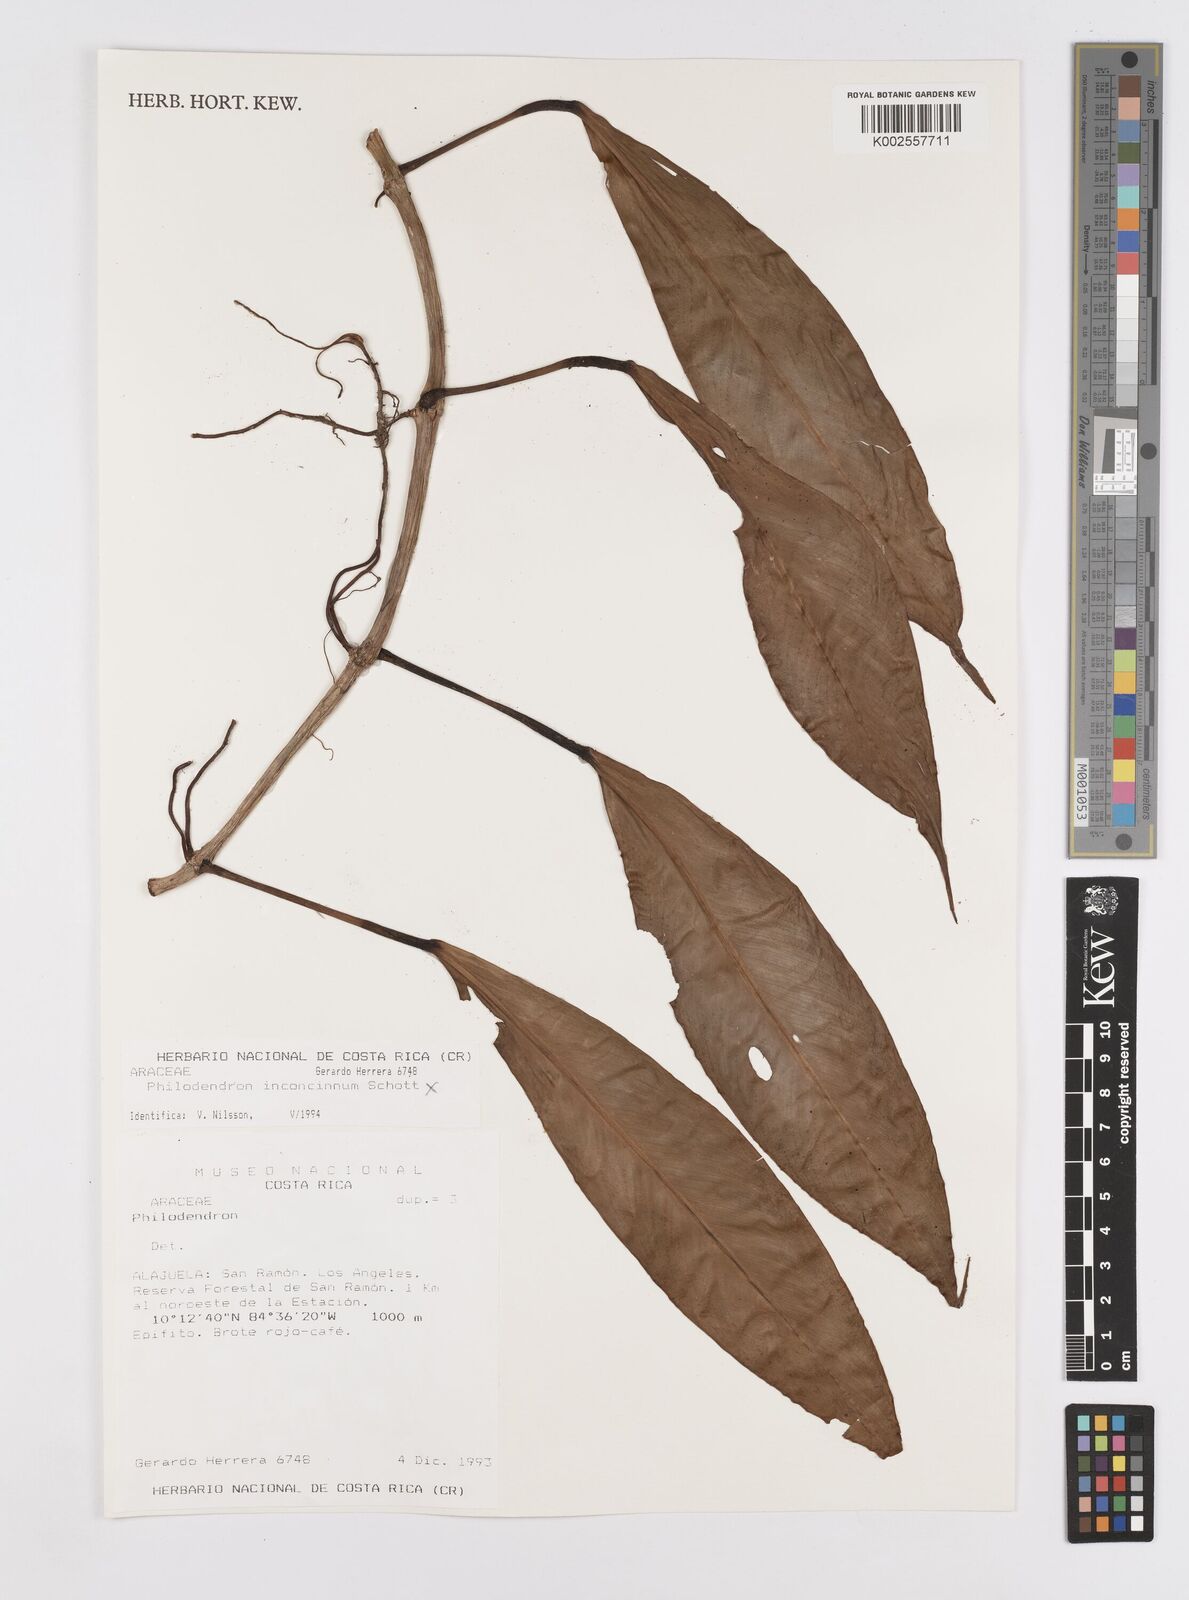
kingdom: Plantae
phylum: Tracheophyta
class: Liliopsida
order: Alismatales
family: Araceae
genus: Philodendron
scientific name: Philodendron
